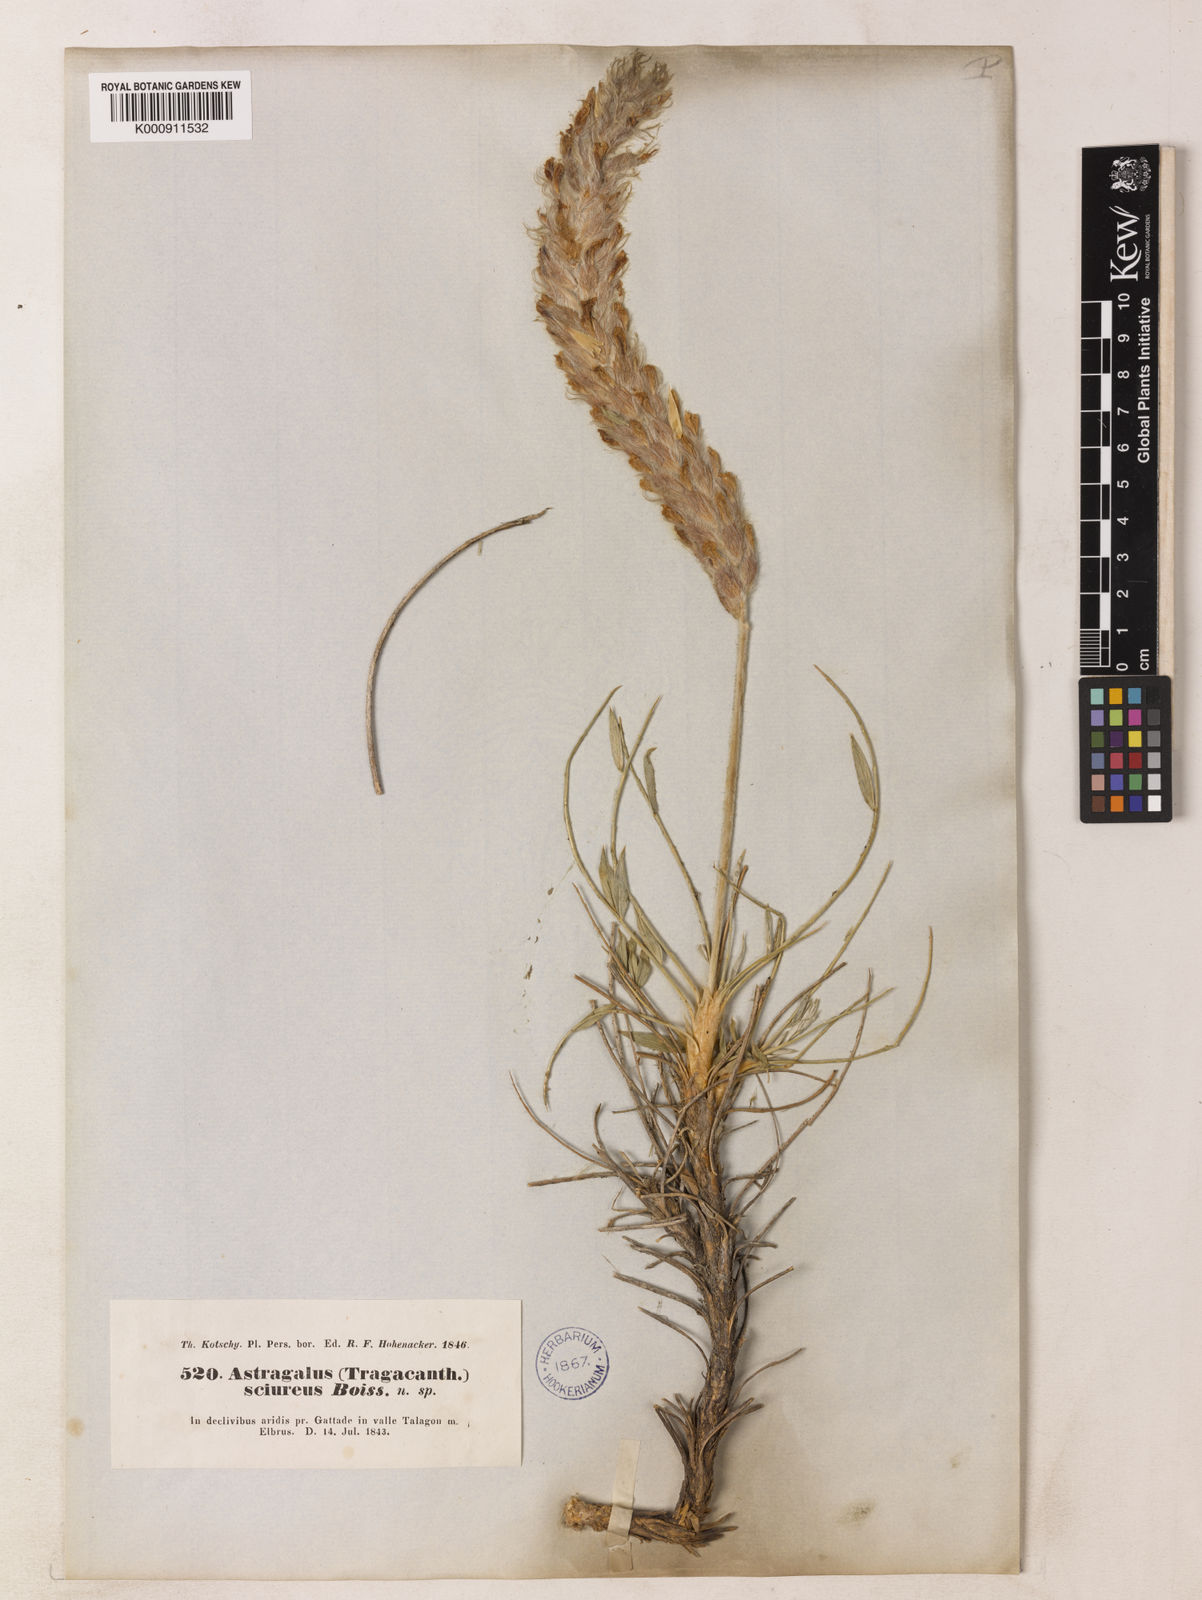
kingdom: Plantae
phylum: Tracheophyta
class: Magnoliopsida
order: Fabales
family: Fabaceae
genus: Astragalus
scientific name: Astragalus sciureus
